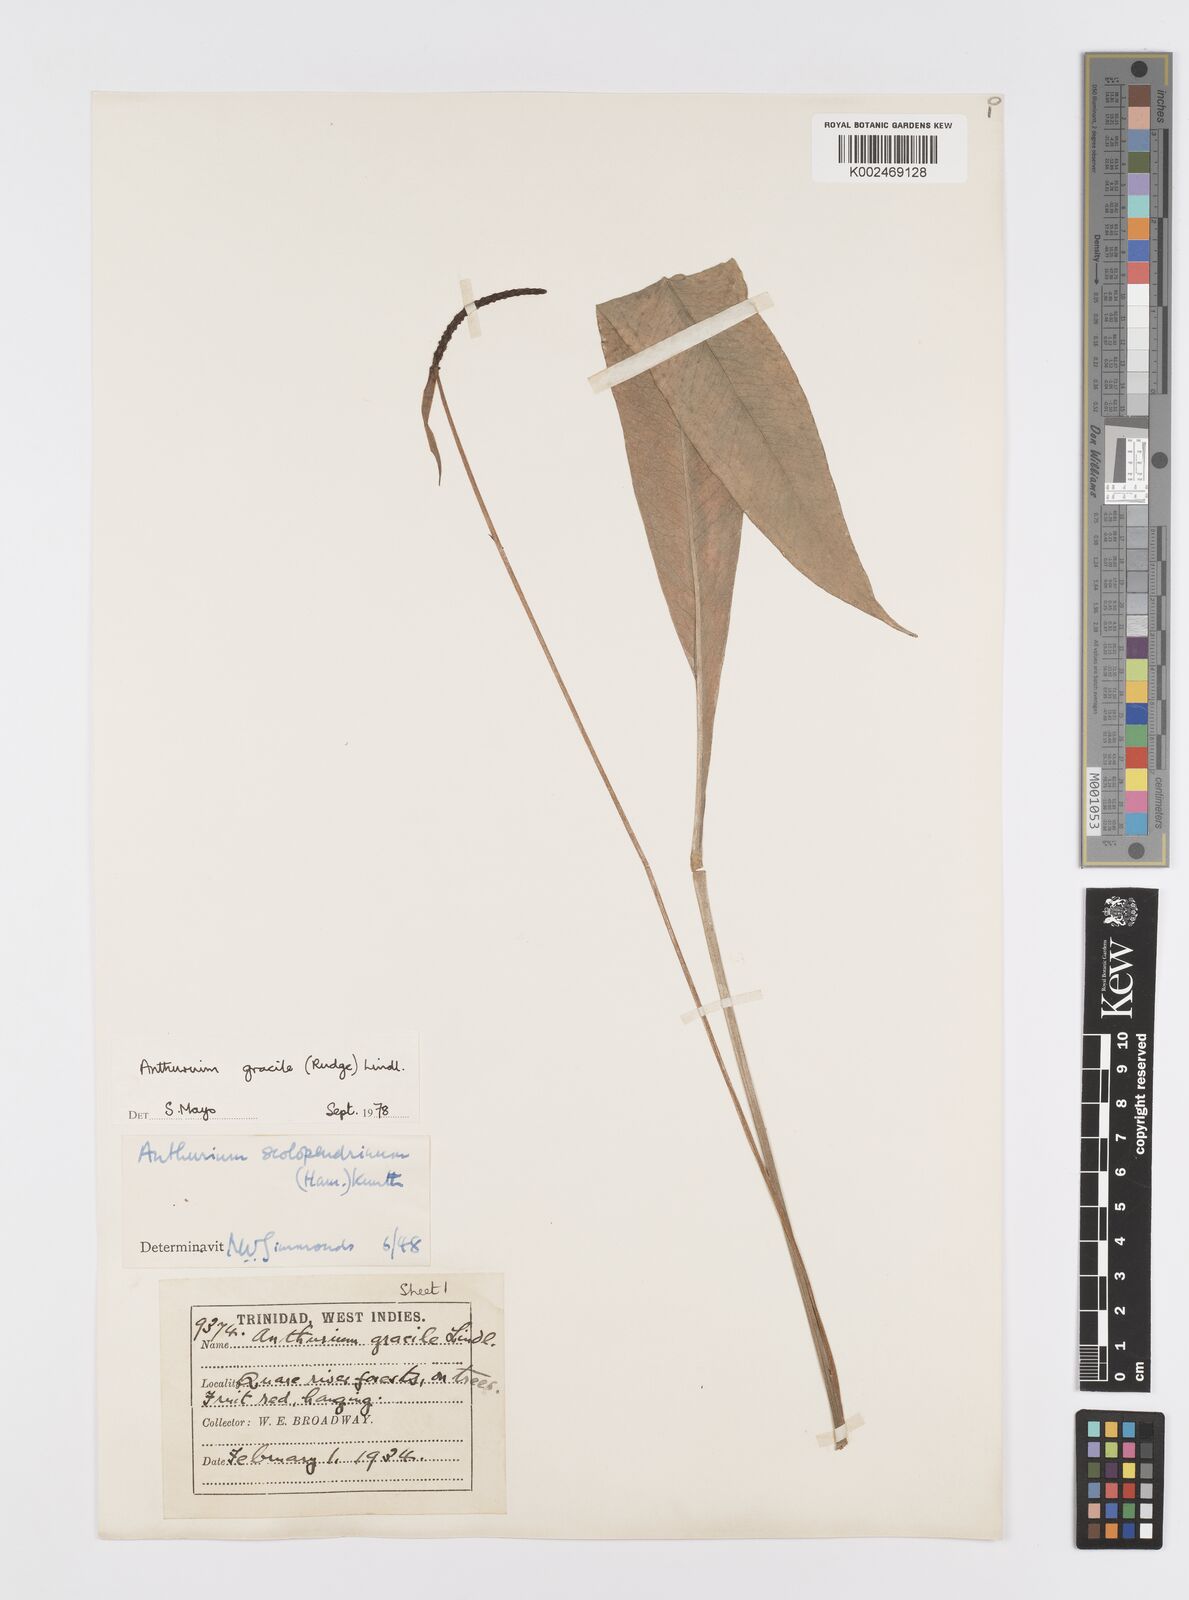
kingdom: Plantae
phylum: Tracheophyta
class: Liliopsida
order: Alismatales
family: Araceae
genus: Anthurium
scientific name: Anthurium gracile
